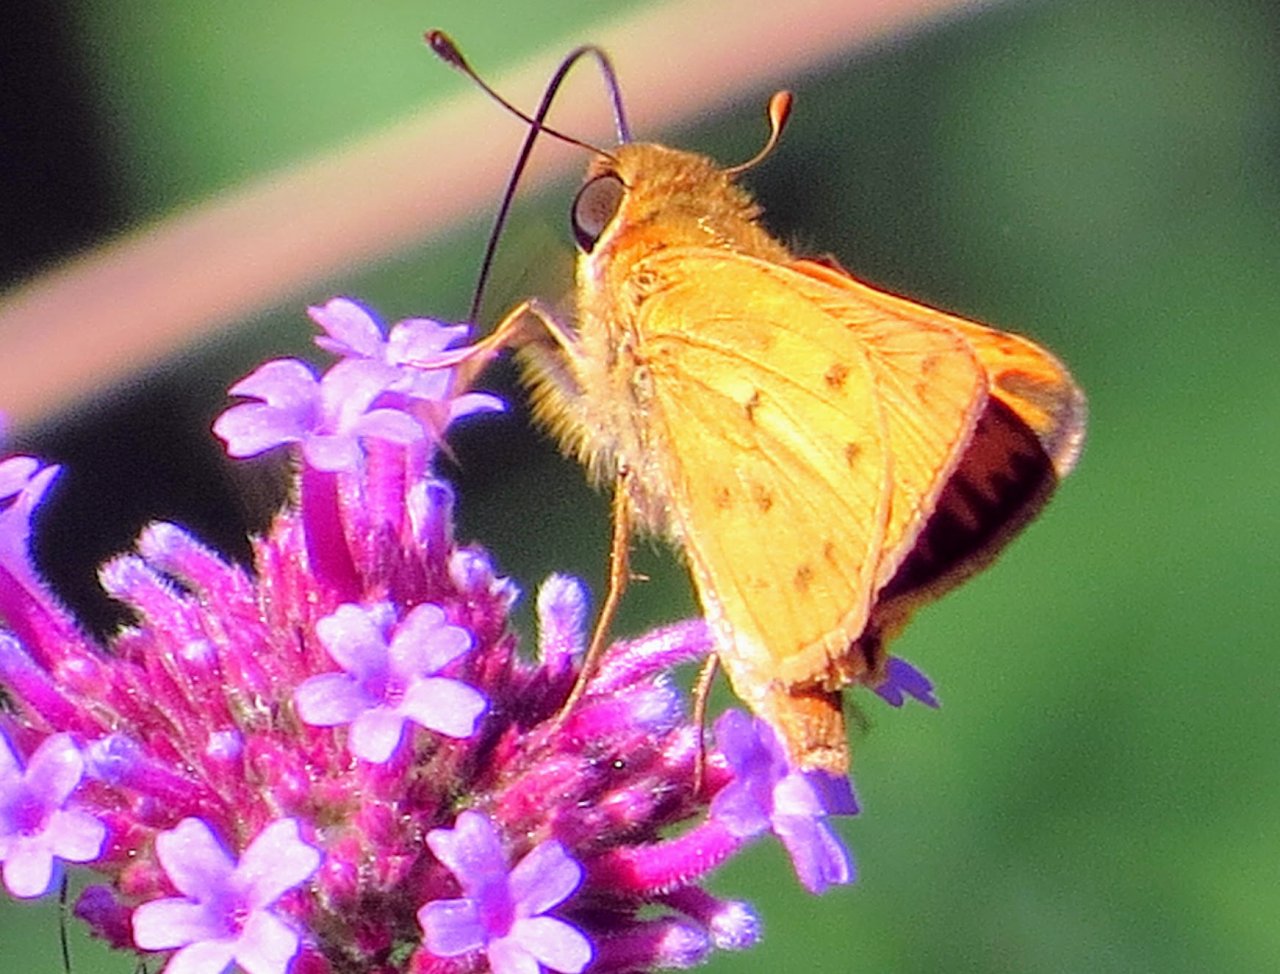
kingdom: Animalia
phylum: Arthropoda
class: Insecta
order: Lepidoptera
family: Hesperiidae
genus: Hylephila
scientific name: Hylephila phyleus
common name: Fiery Skipper
